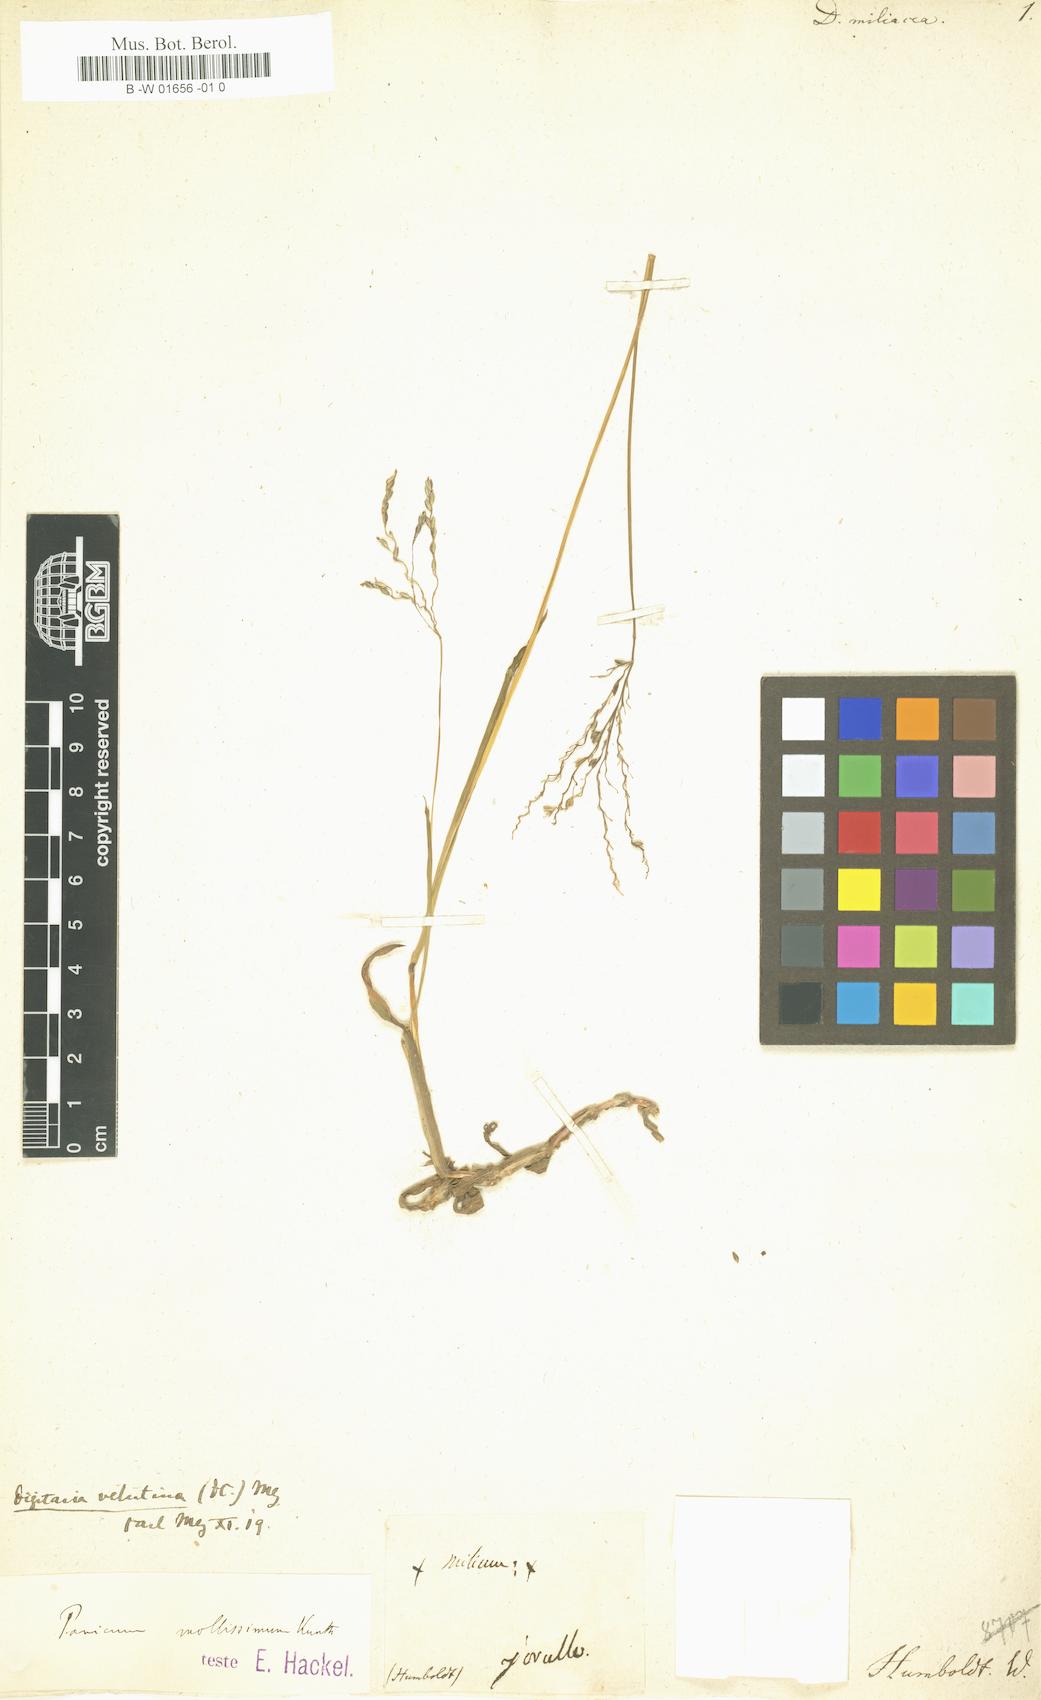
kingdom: Plantae
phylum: Tracheophyta
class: Liliopsida
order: Poales
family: Poaceae
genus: Urochloa
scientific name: Urochloa fusca
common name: Browntop signal grass
